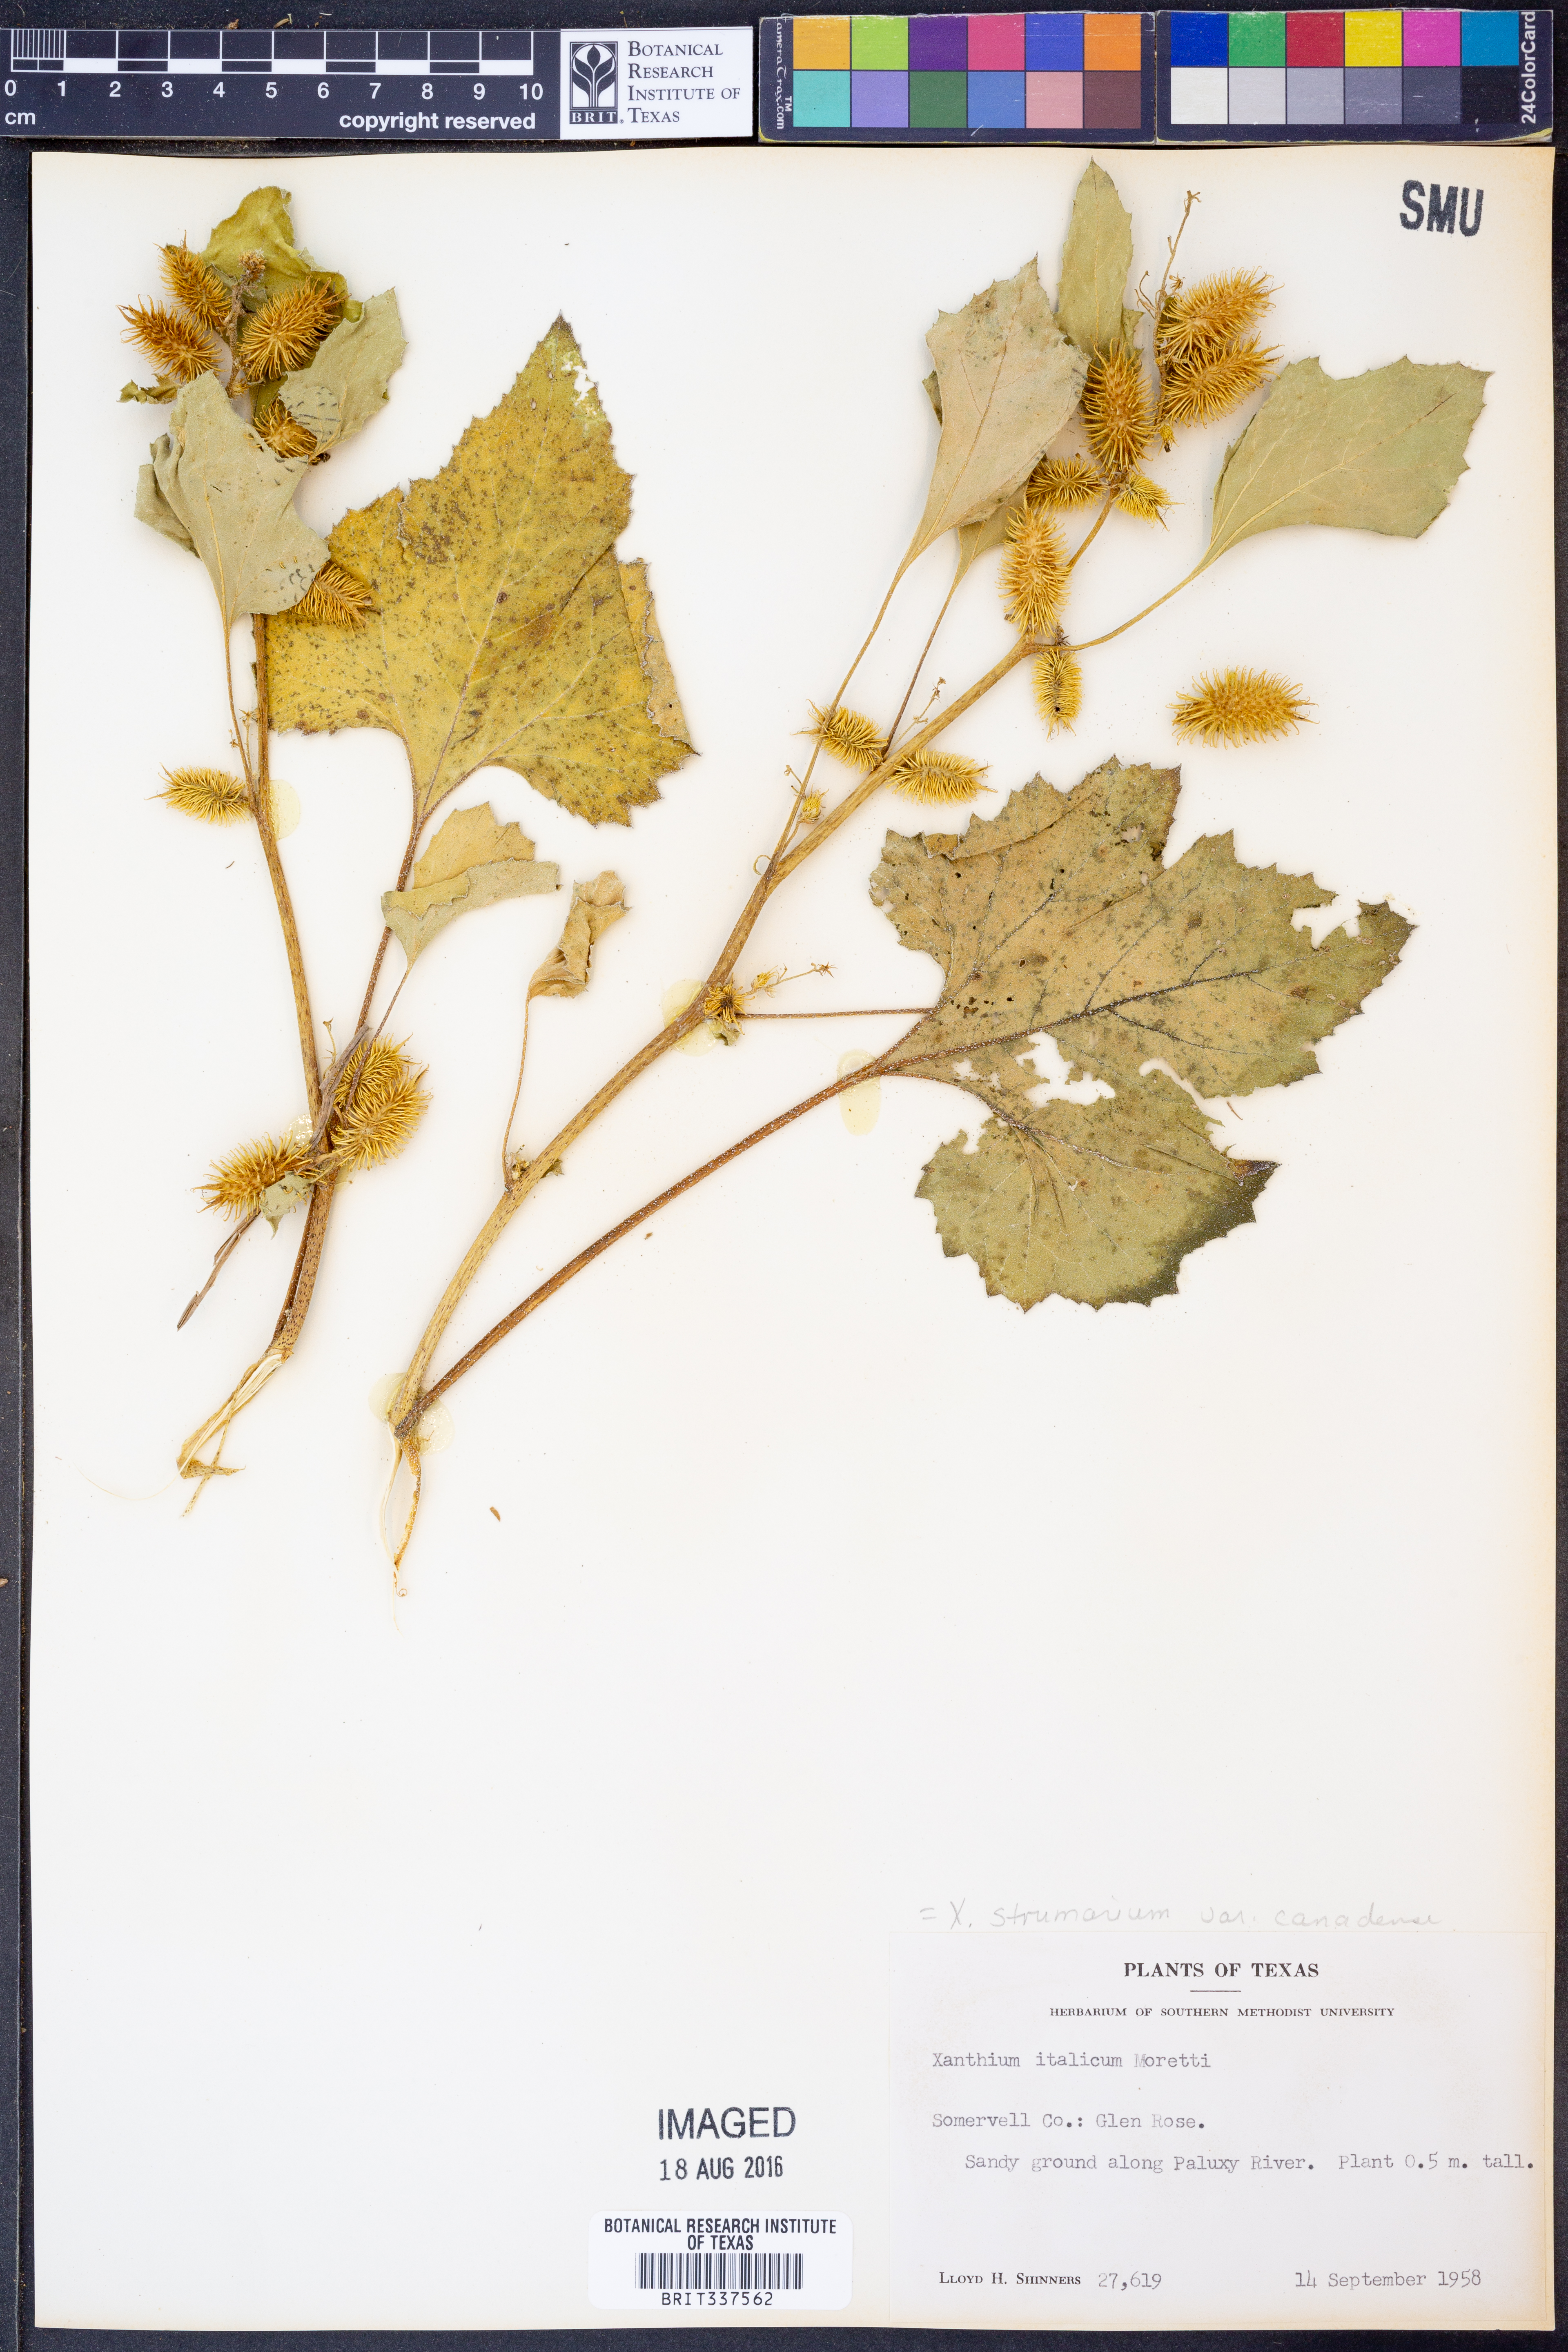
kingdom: Plantae
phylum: Tracheophyta
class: Magnoliopsida
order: Asterales
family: Asteraceae
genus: Xanthium
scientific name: Xanthium orientale
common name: Californian burr
